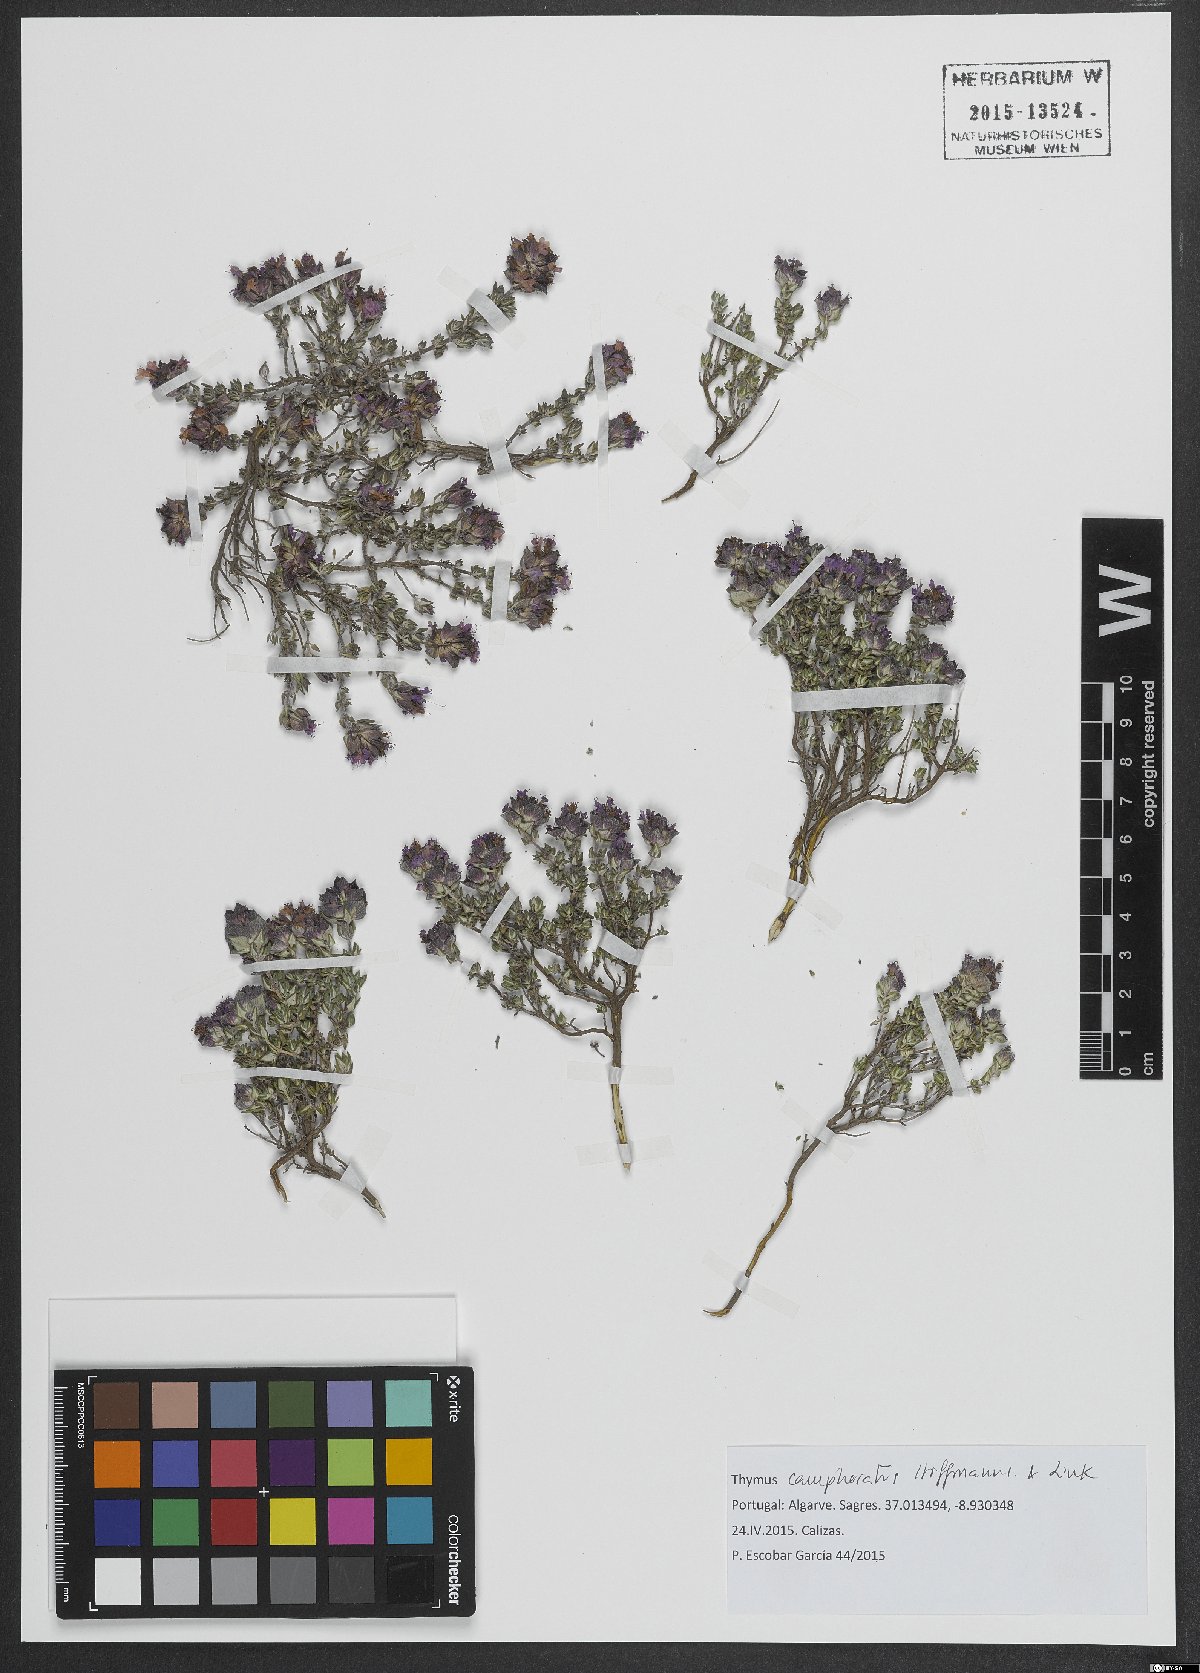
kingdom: Plantae
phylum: Tracheophyta
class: Magnoliopsida
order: Lamiales
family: Lamiaceae
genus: Thymus
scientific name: Thymus camphoratus
